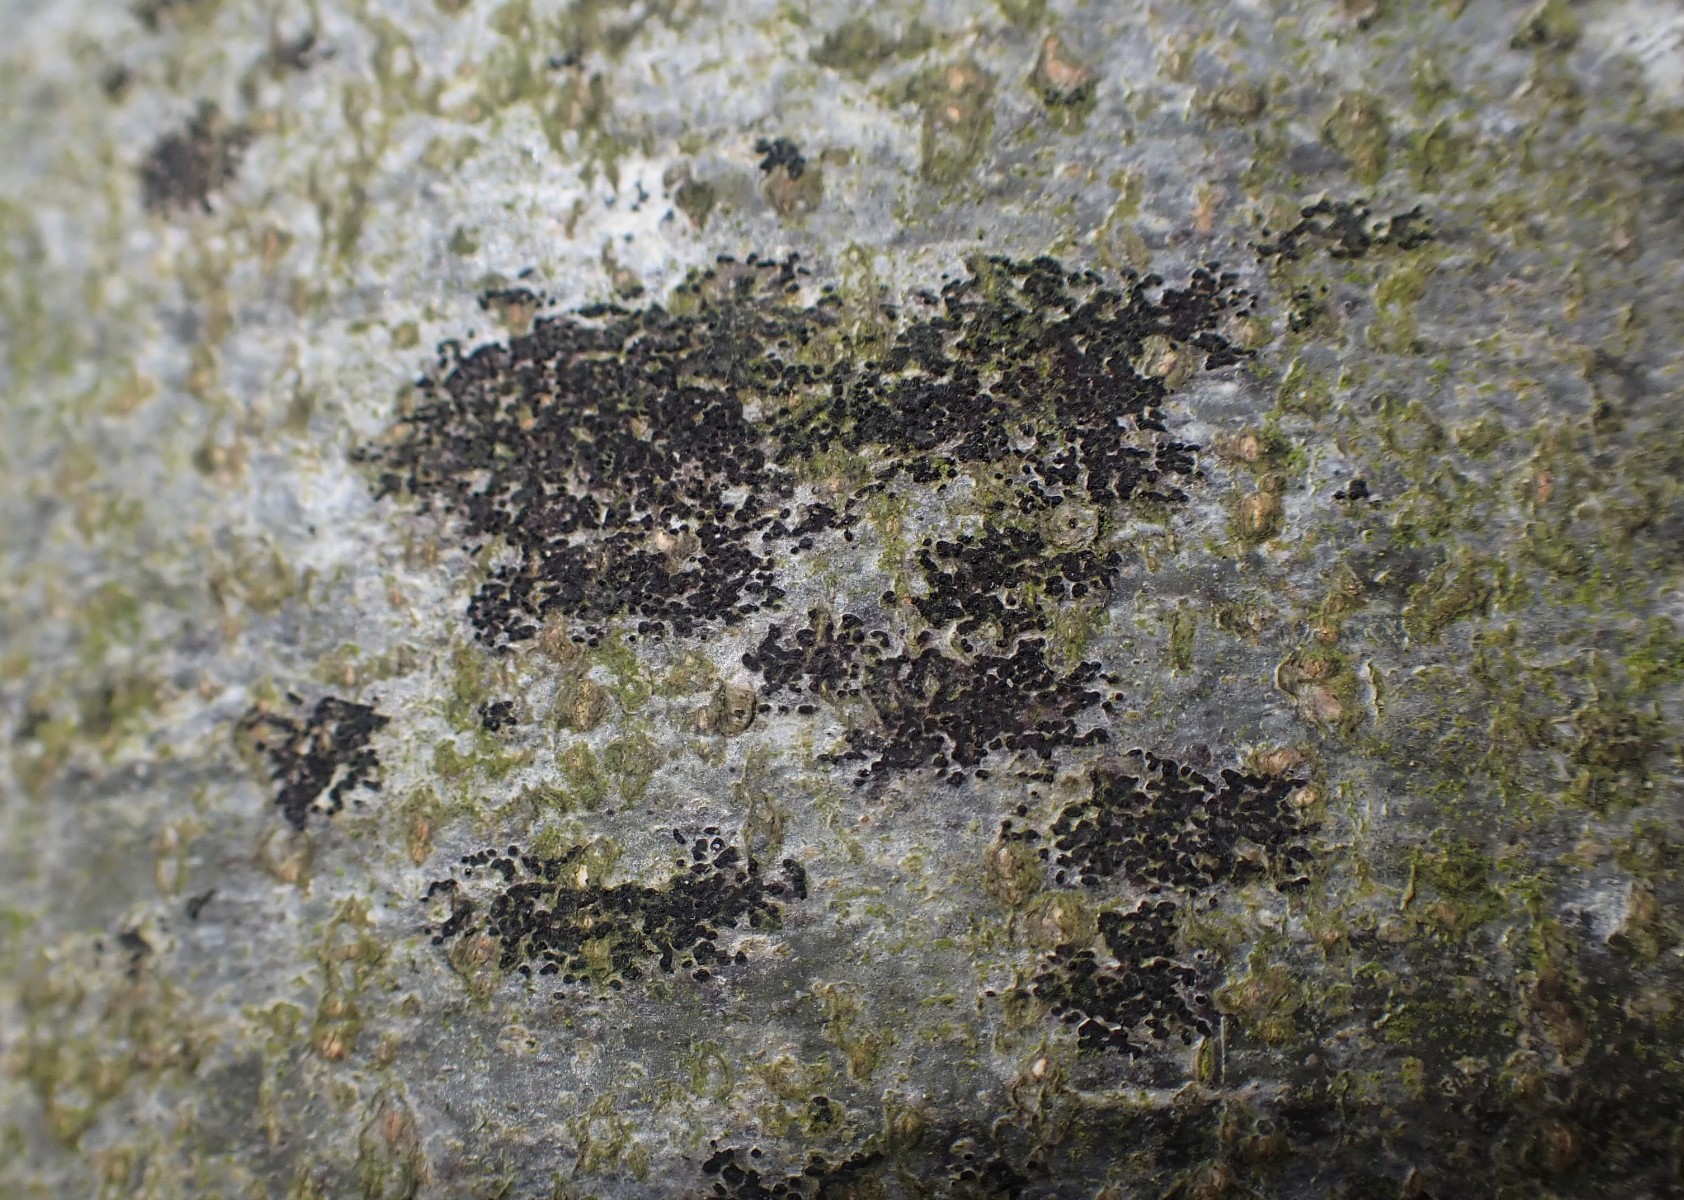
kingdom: Fungi
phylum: Ascomycota
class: Leotiomycetes
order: Rhytismatales
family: Ascodichaenaceae
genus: Ascodichaena
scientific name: Ascodichaena rugosa
